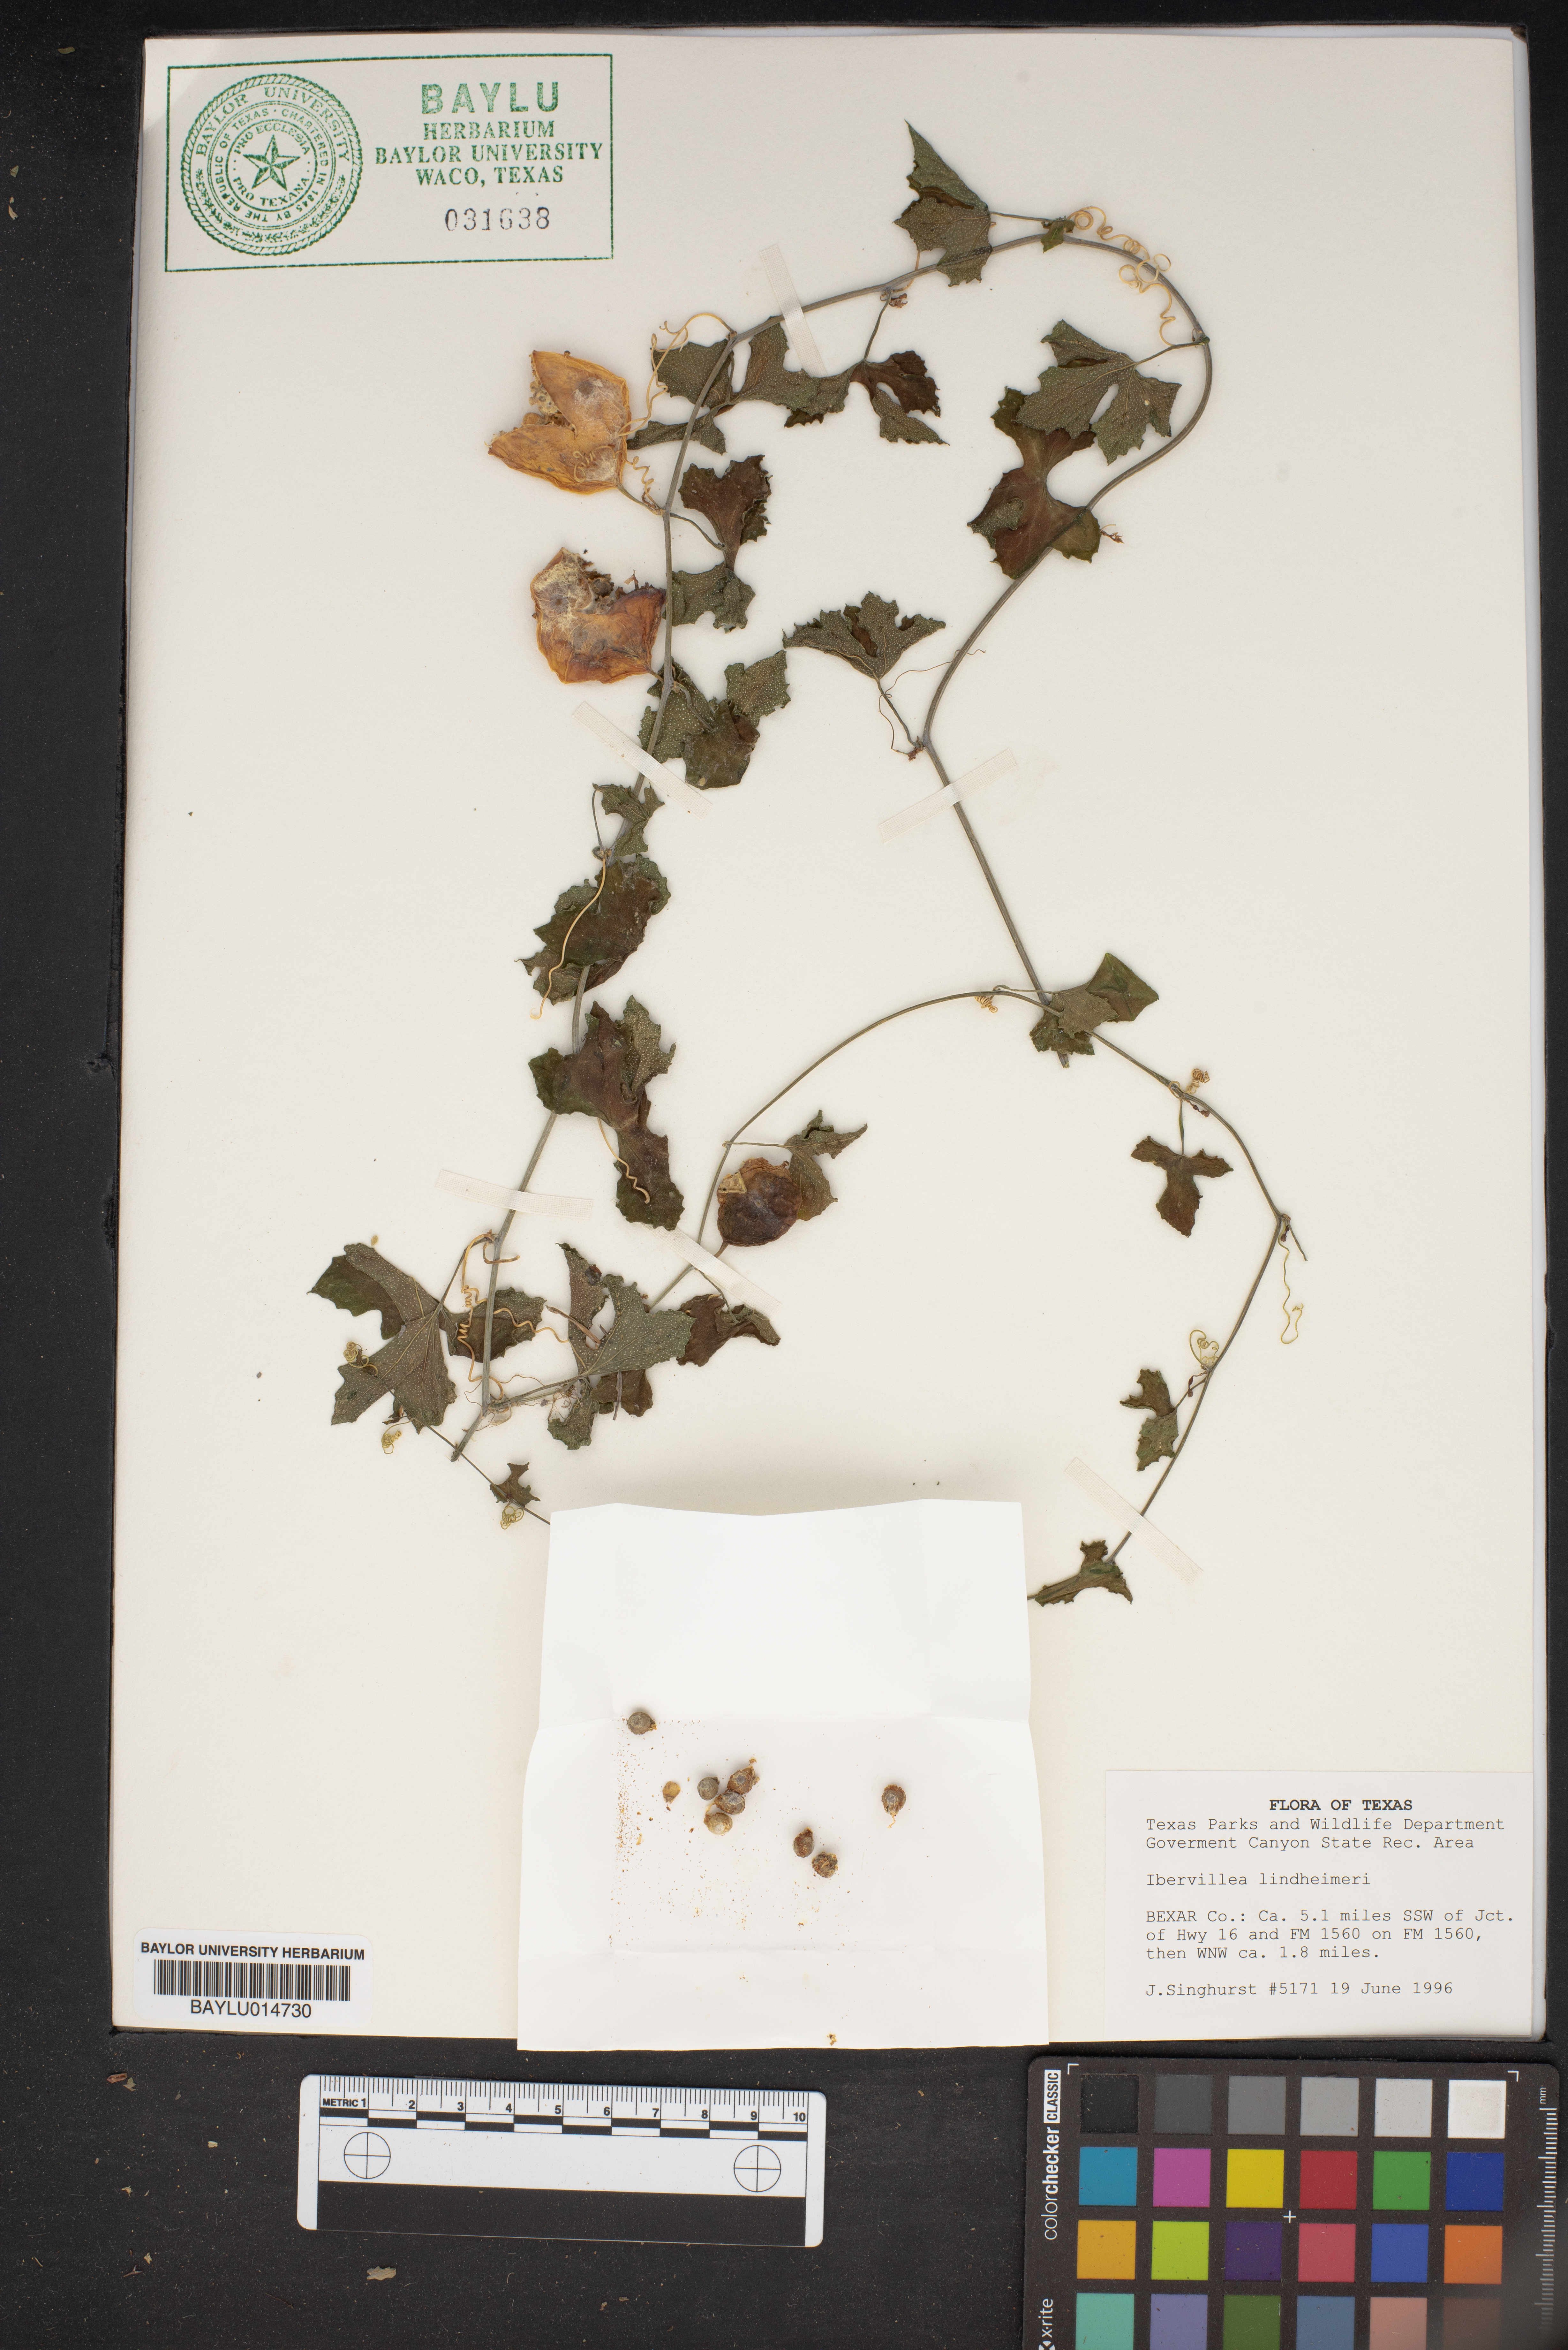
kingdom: Plantae
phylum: Tracheophyta
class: Magnoliopsida
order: Cucurbitales
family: Cucurbitaceae
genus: Ibervillea
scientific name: Ibervillea lindheimeri
